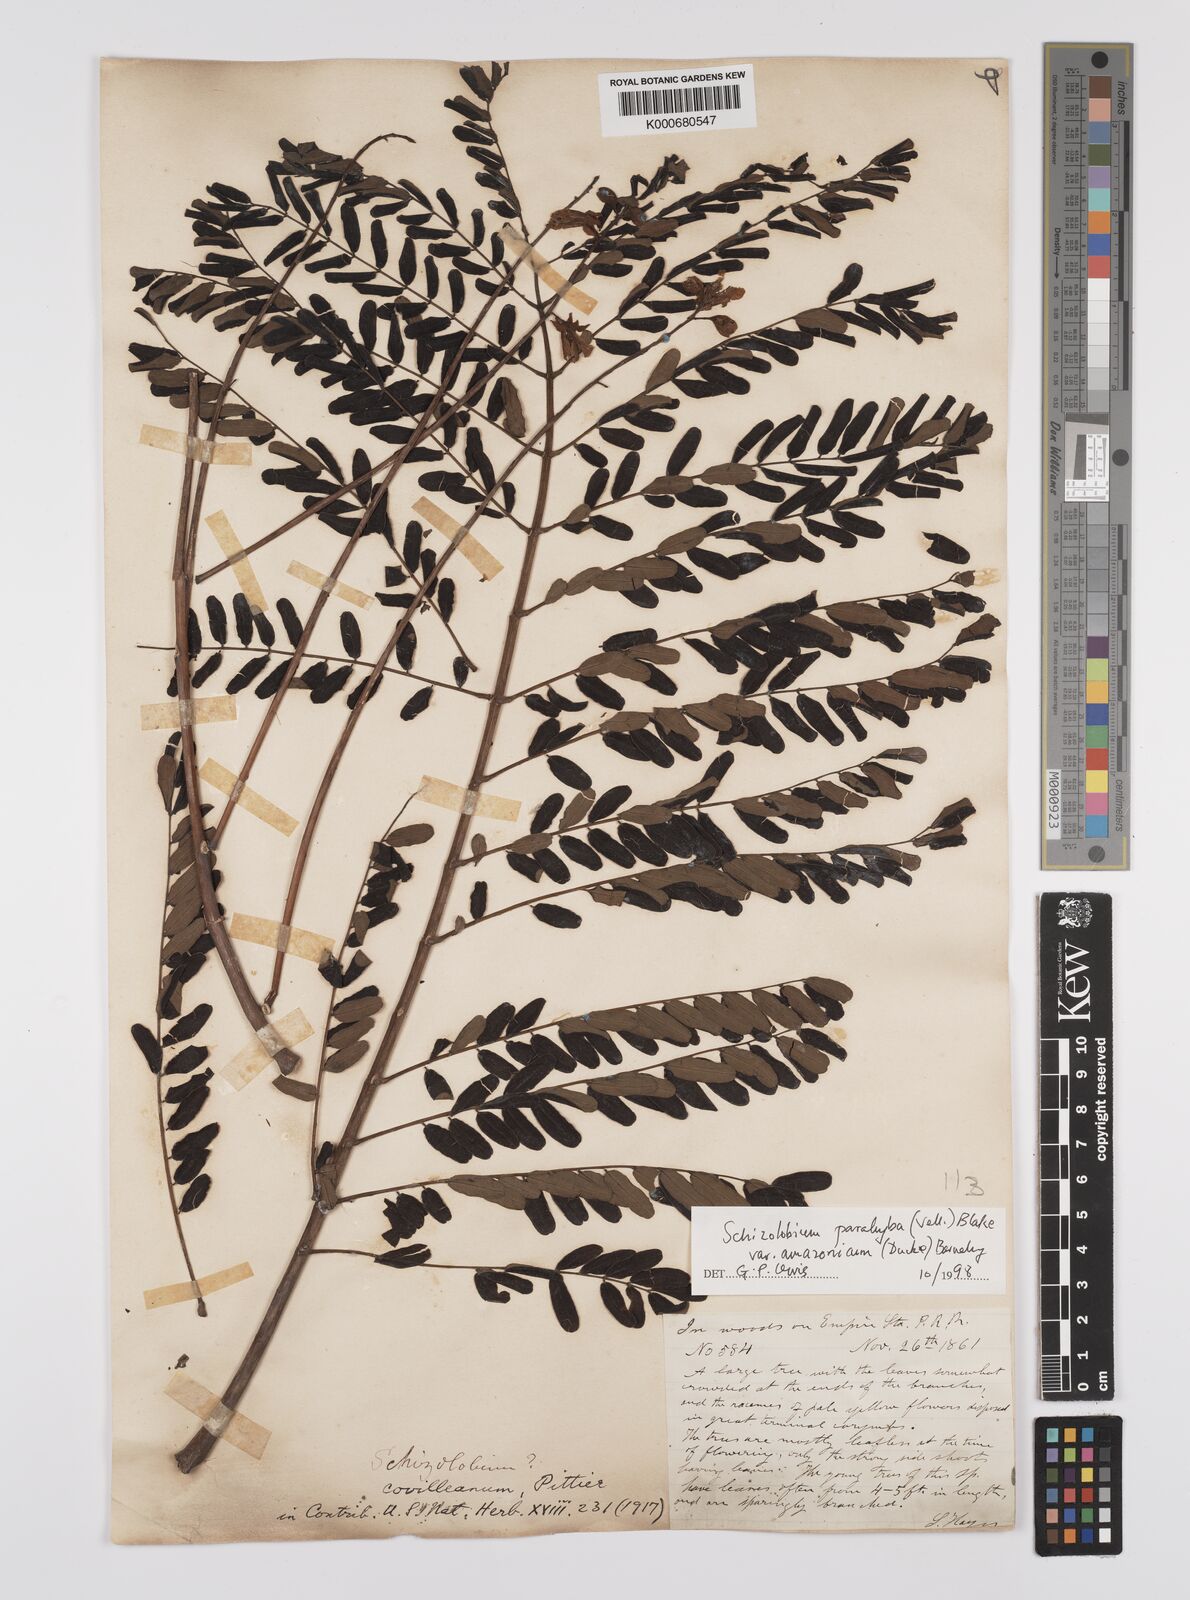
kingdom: Plantae
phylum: Tracheophyta
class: Magnoliopsida
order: Fabales
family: Fabaceae
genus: Schizolobium
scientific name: Schizolobium parahyba
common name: Brazilian firetree
